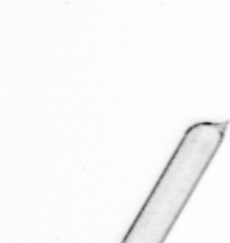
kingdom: Chromista
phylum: Ochrophyta
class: Bacillariophyceae
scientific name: Bacillariophyceae
